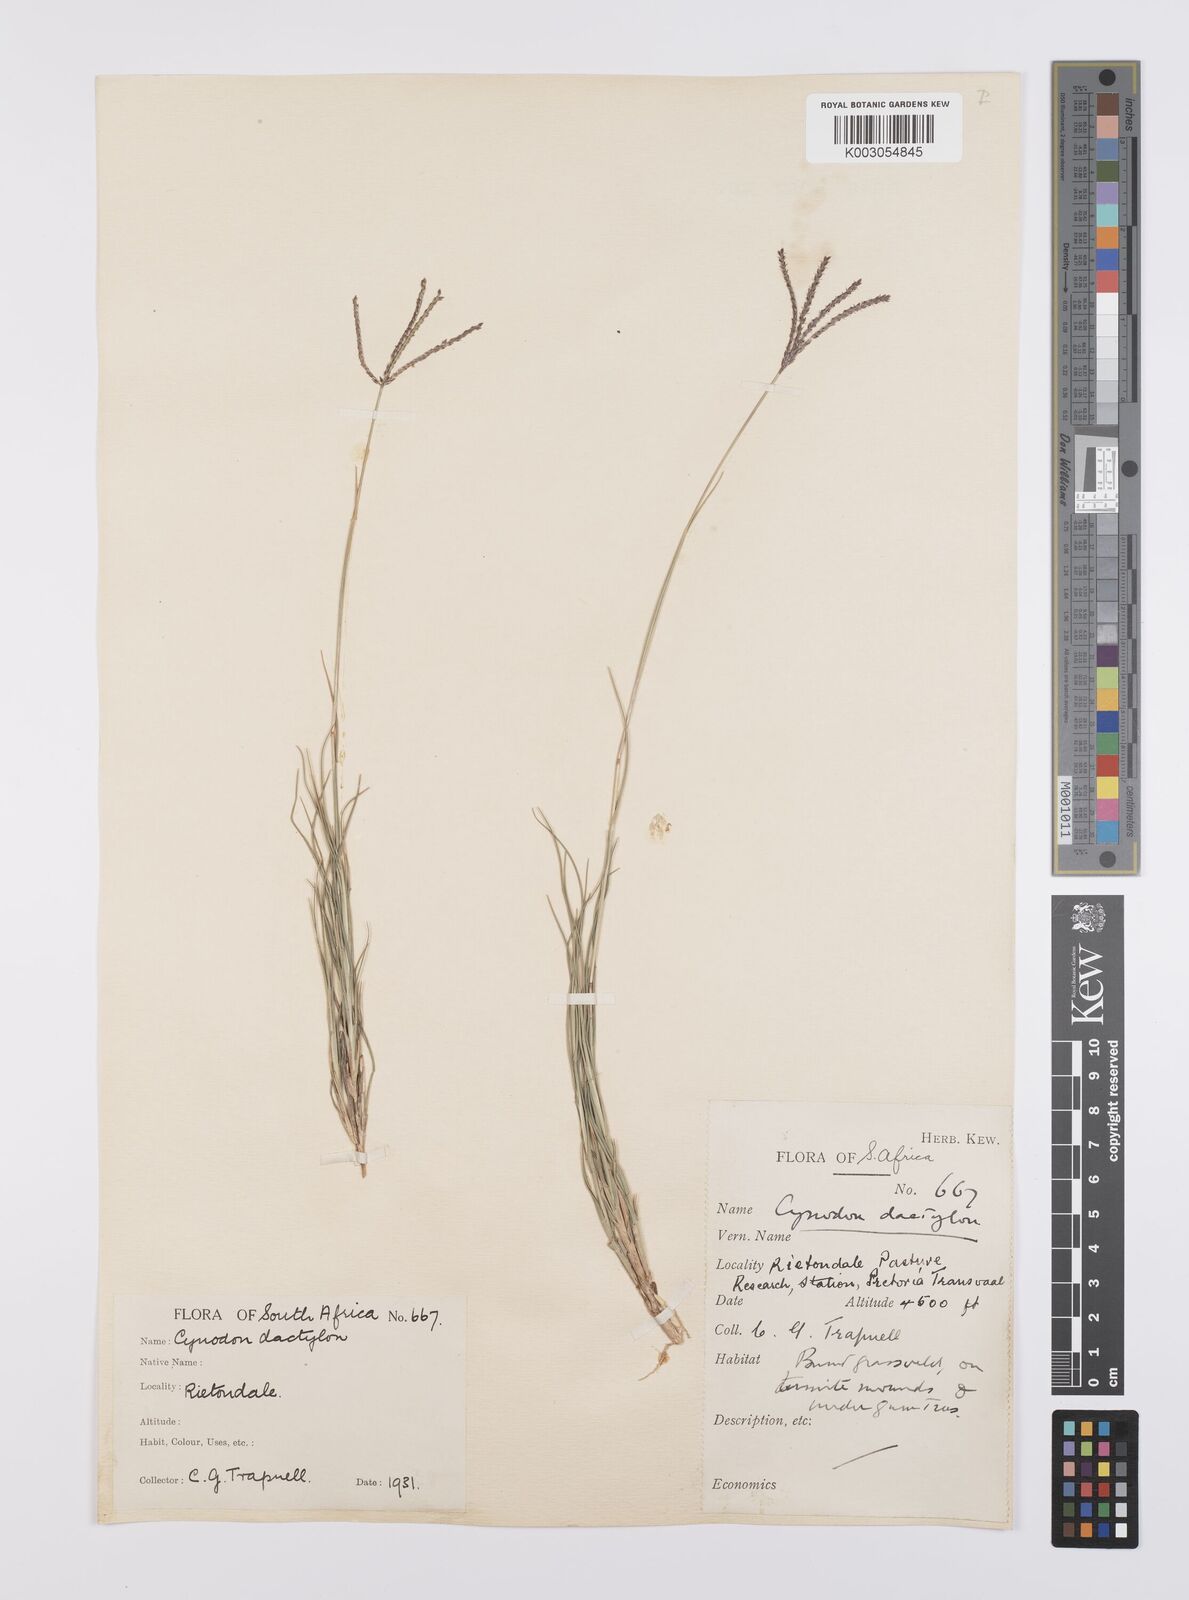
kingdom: Plantae
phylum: Tracheophyta
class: Liliopsida
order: Poales
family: Poaceae
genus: Cynodon
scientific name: Cynodon dactylon
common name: Bermuda grass
